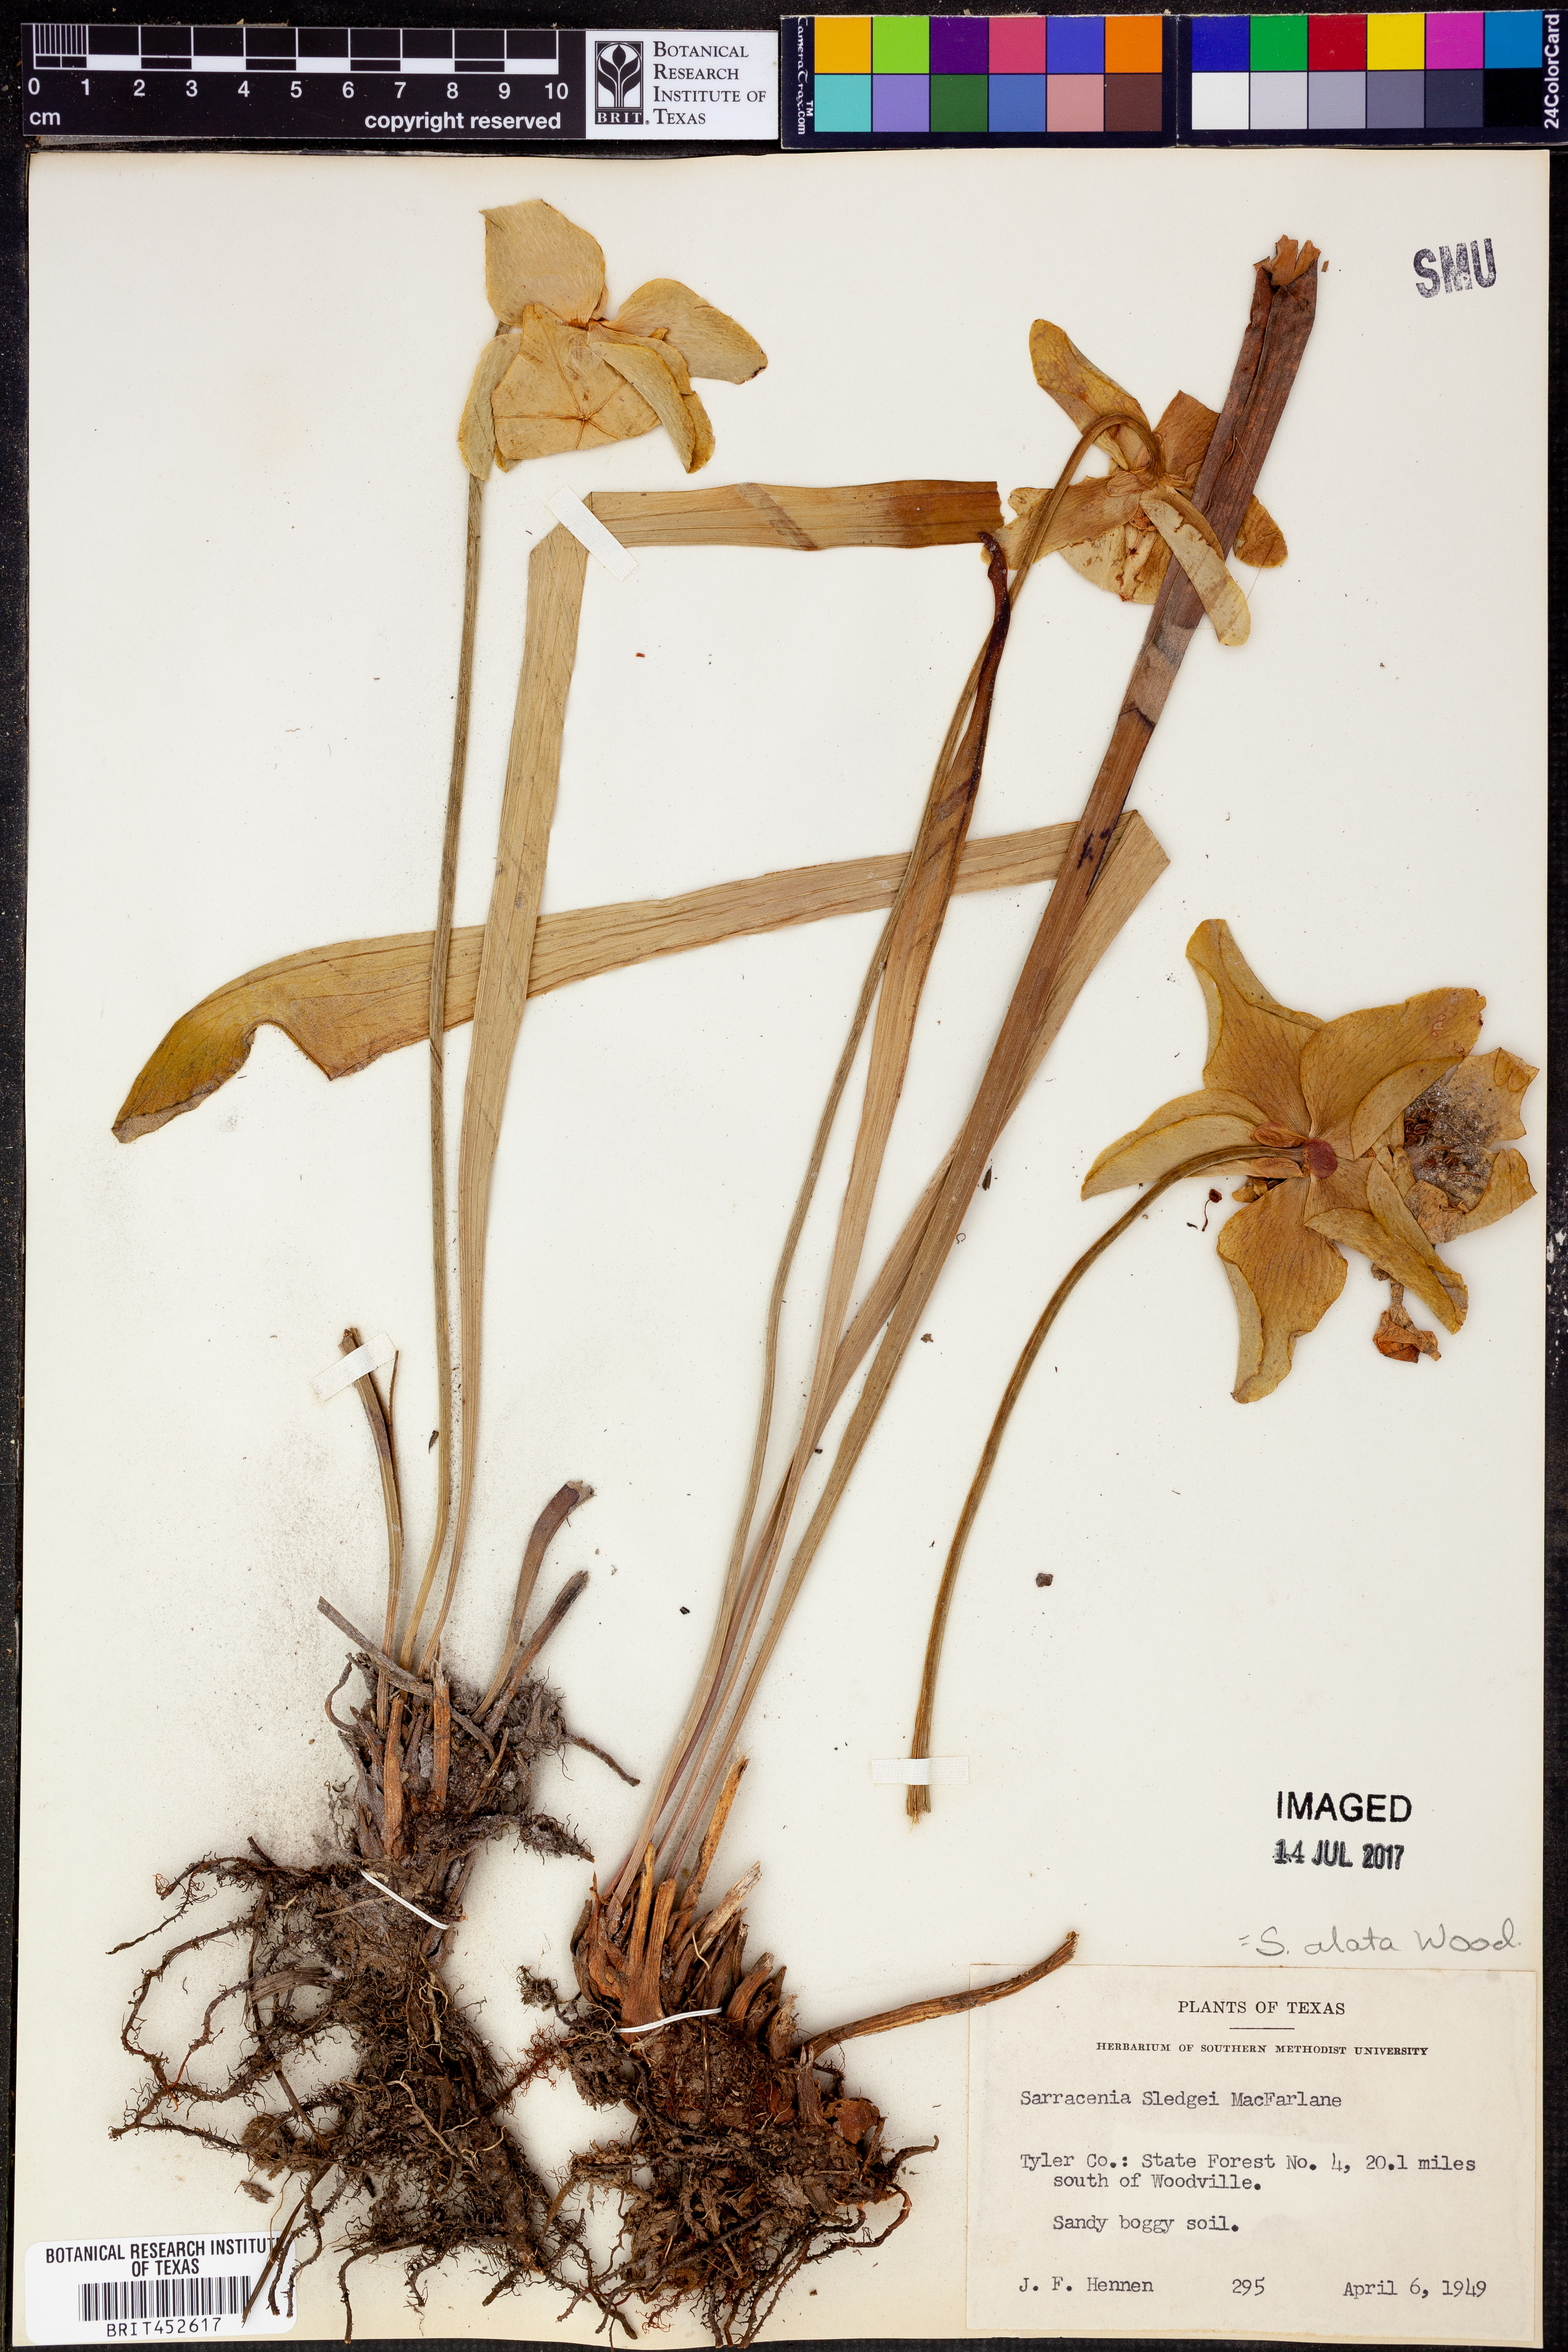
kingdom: Plantae
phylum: Tracheophyta
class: Magnoliopsida
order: Ericales
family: Sarraceniaceae
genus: Sarracenia
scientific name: Sarracenia alata
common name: Yellow trumpets
